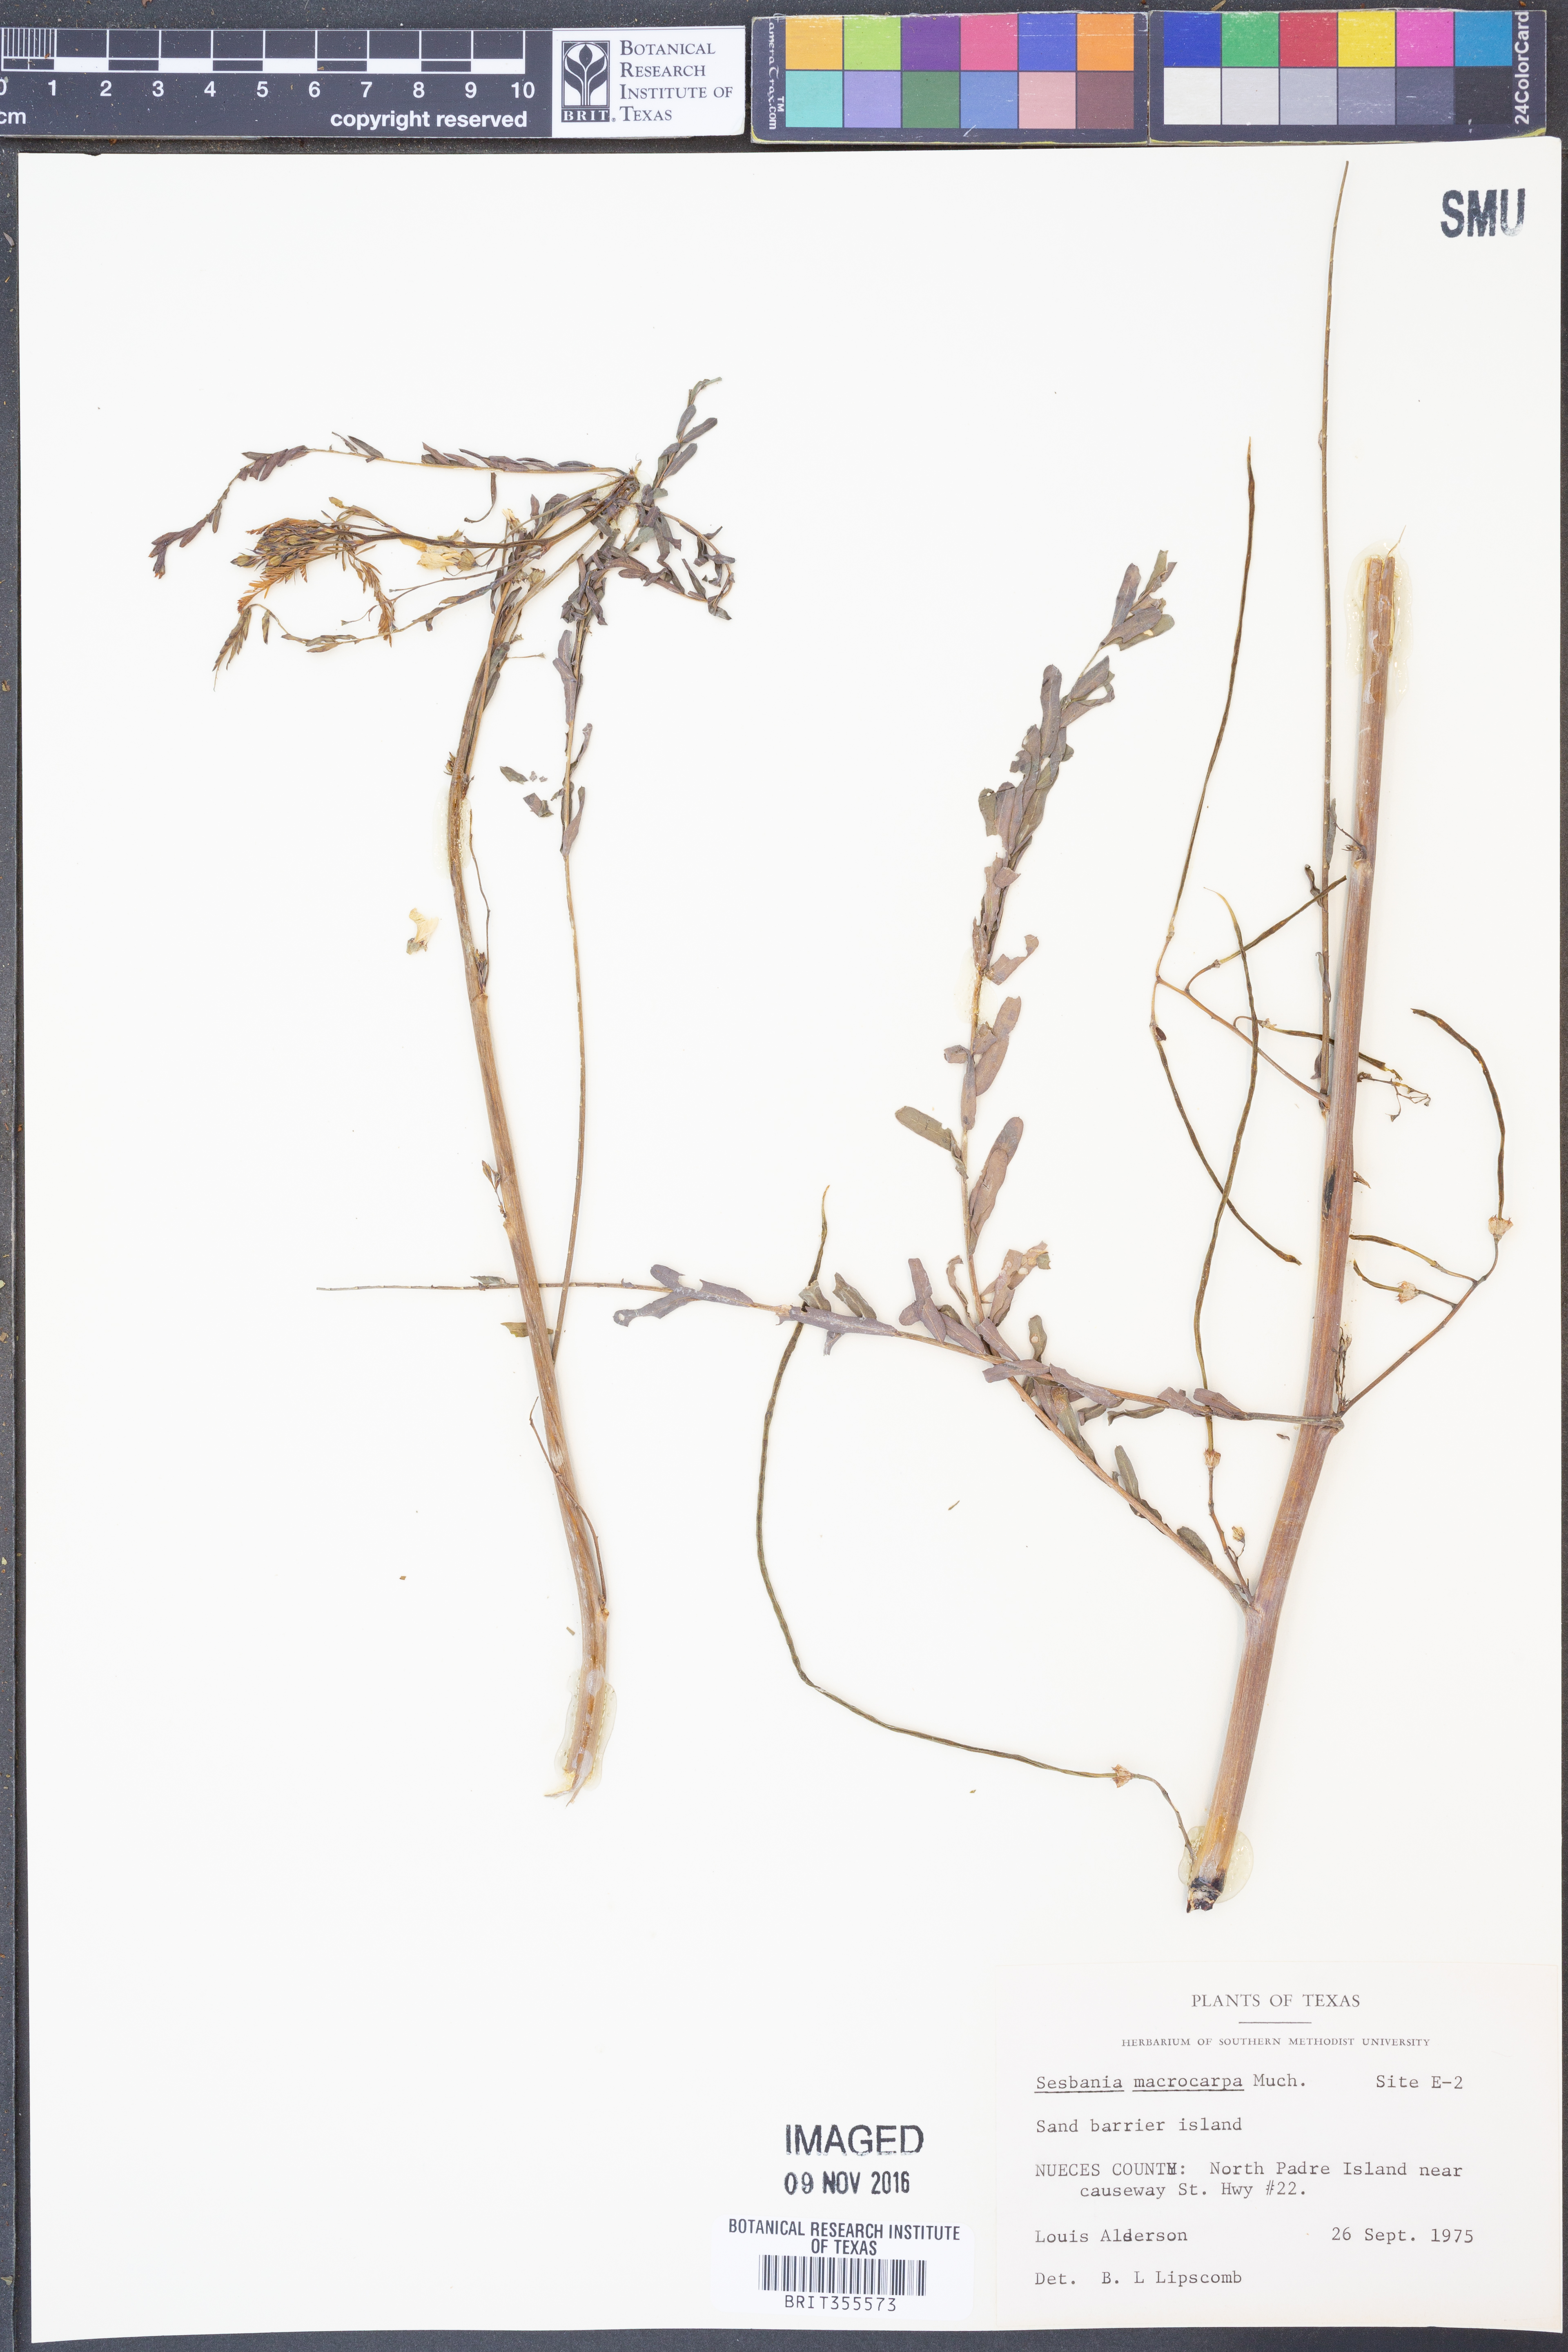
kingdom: Plantae
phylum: Tracheophyta
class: Magnoliopsida
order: Fabales
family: Fabaceae
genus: Sesbania
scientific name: Sesbania vesicaria
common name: Bagpod
